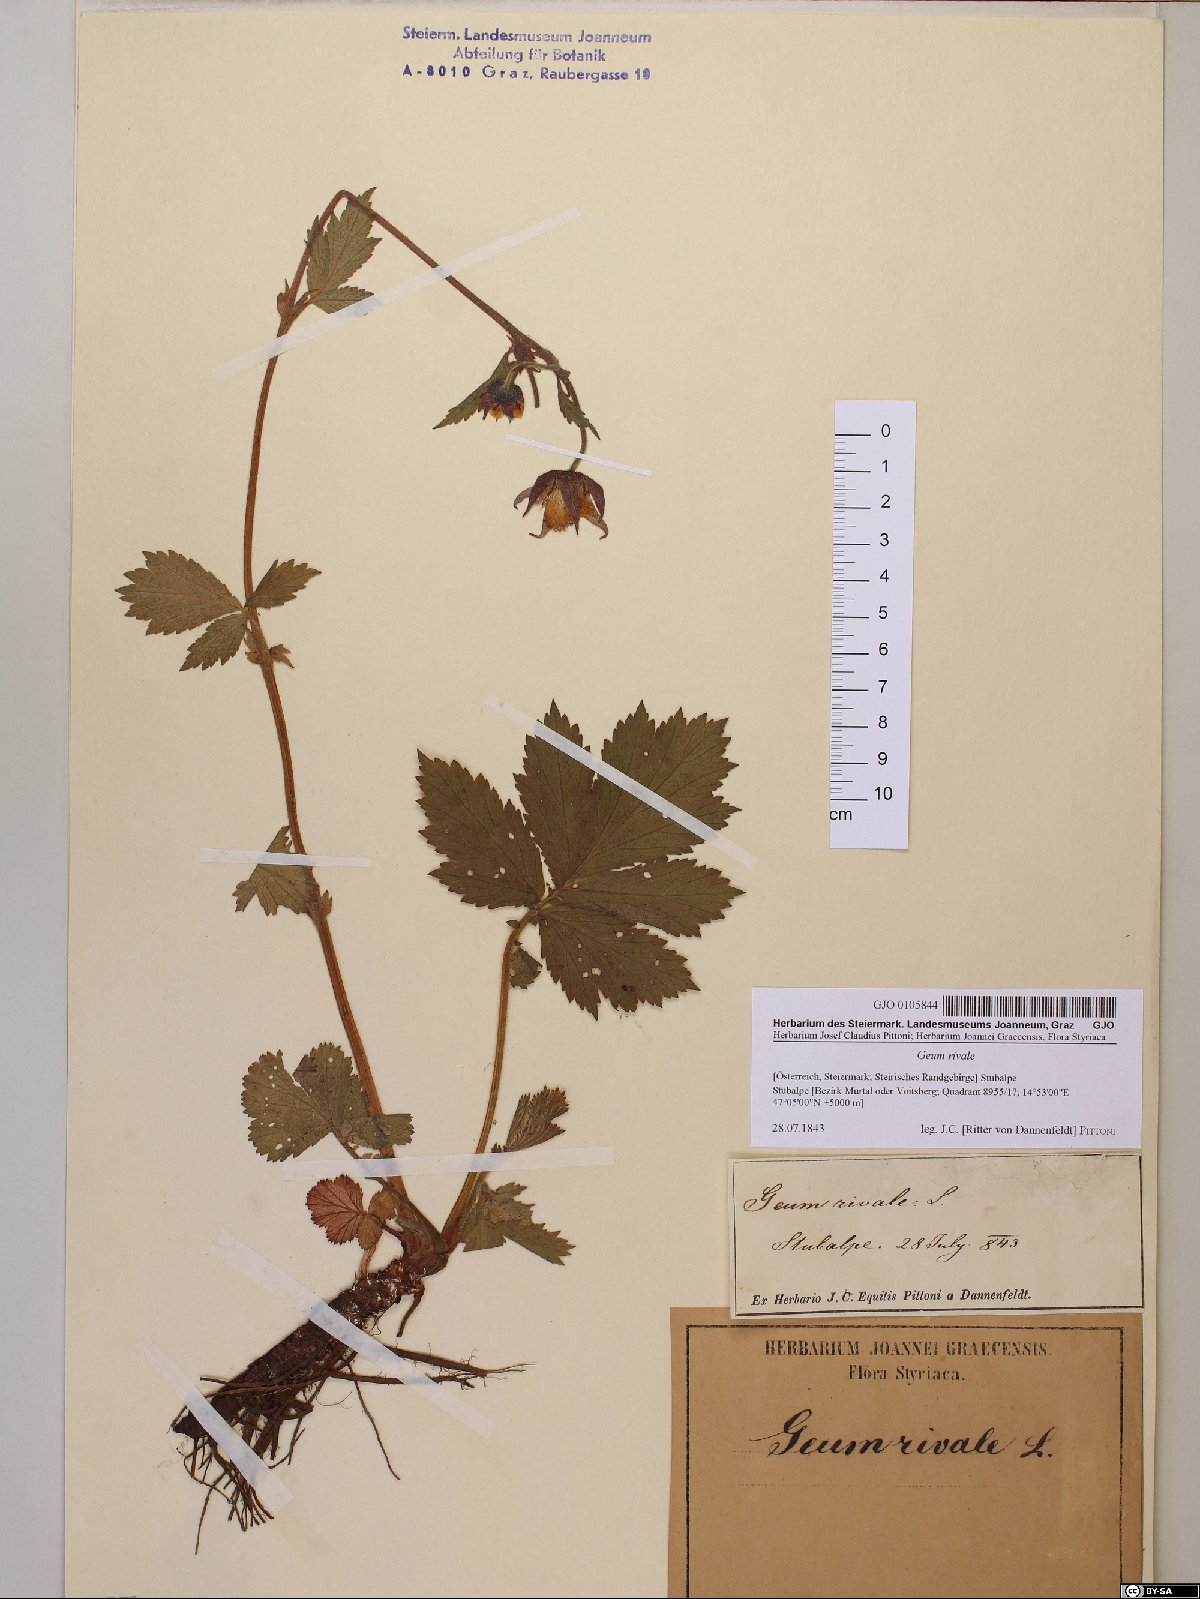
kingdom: Plantae
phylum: Tracheophyta
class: Magnoliopsida
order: Rosales
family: Rosaceae
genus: Geum
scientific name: Geum rivale
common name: Water avens
